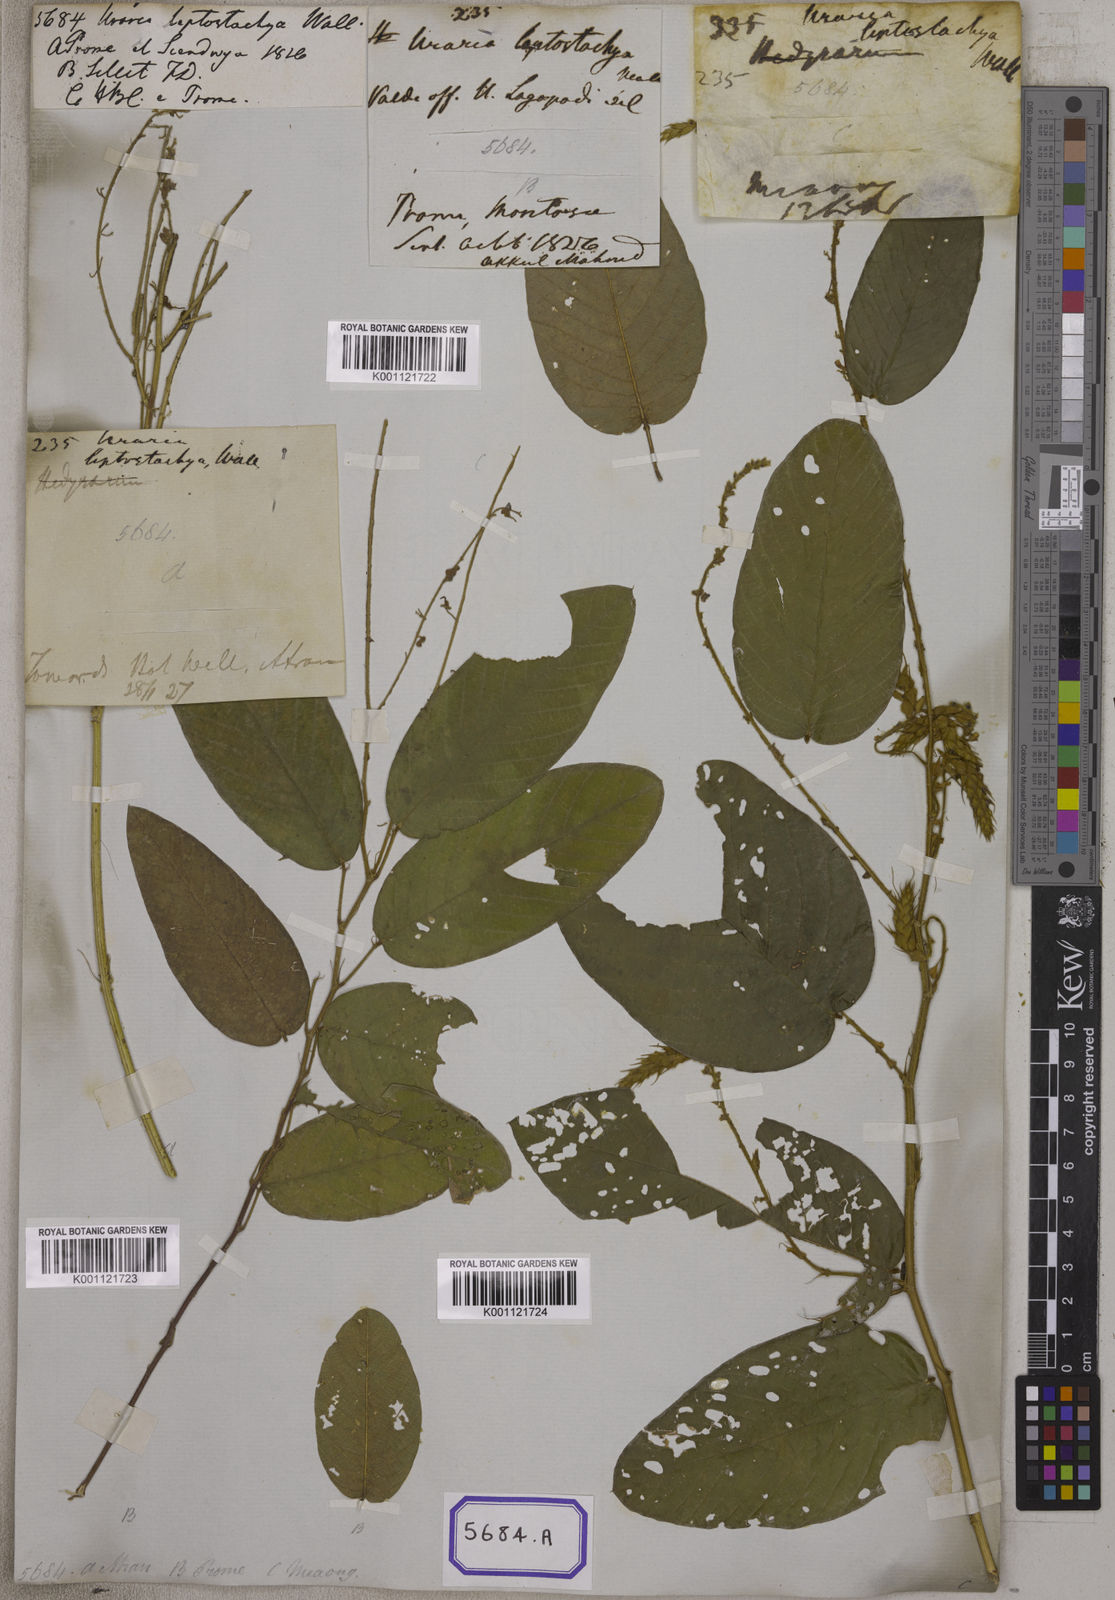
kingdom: Plantae
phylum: Tracheophyta
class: Magnoliopsida
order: Fabales
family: Fabaceae
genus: Uraria
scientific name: Uraria
